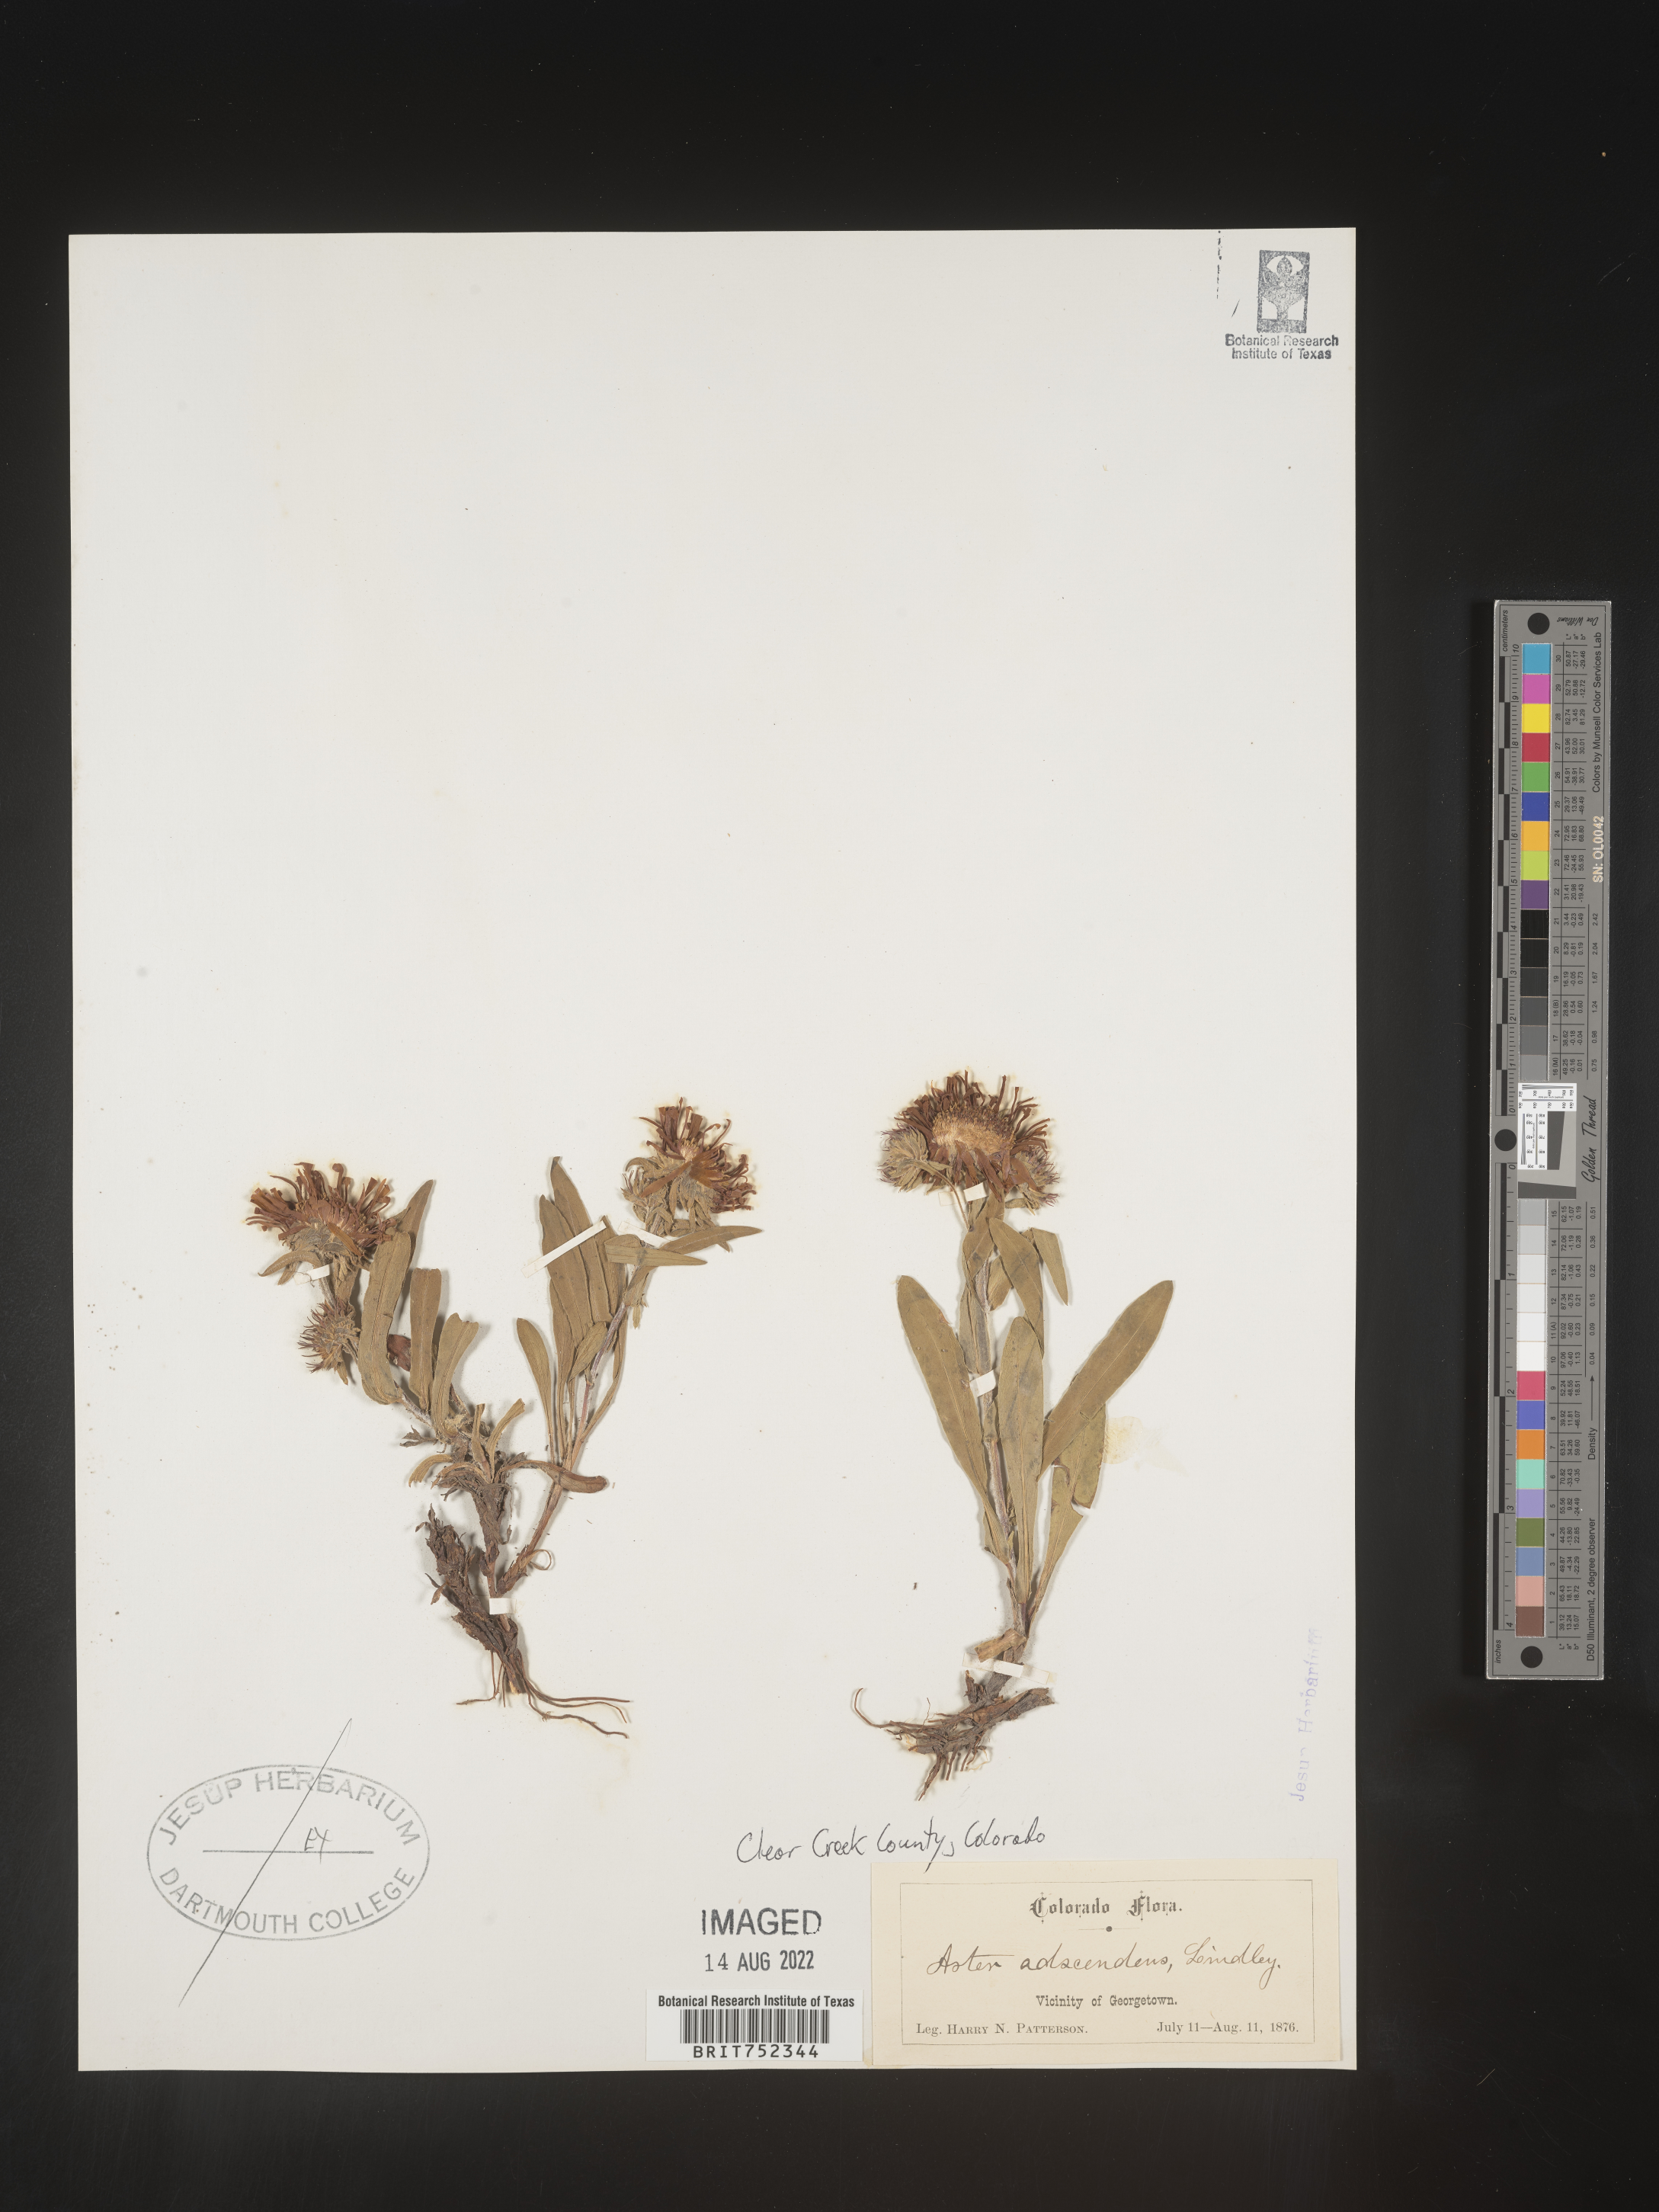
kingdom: Plantae
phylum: Tracheophyta
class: Magnoliopsida
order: Asterales
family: Asteraceae
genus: Symphyotrichum
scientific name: Symphyotrichum foliaceum
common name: Leafy aster
